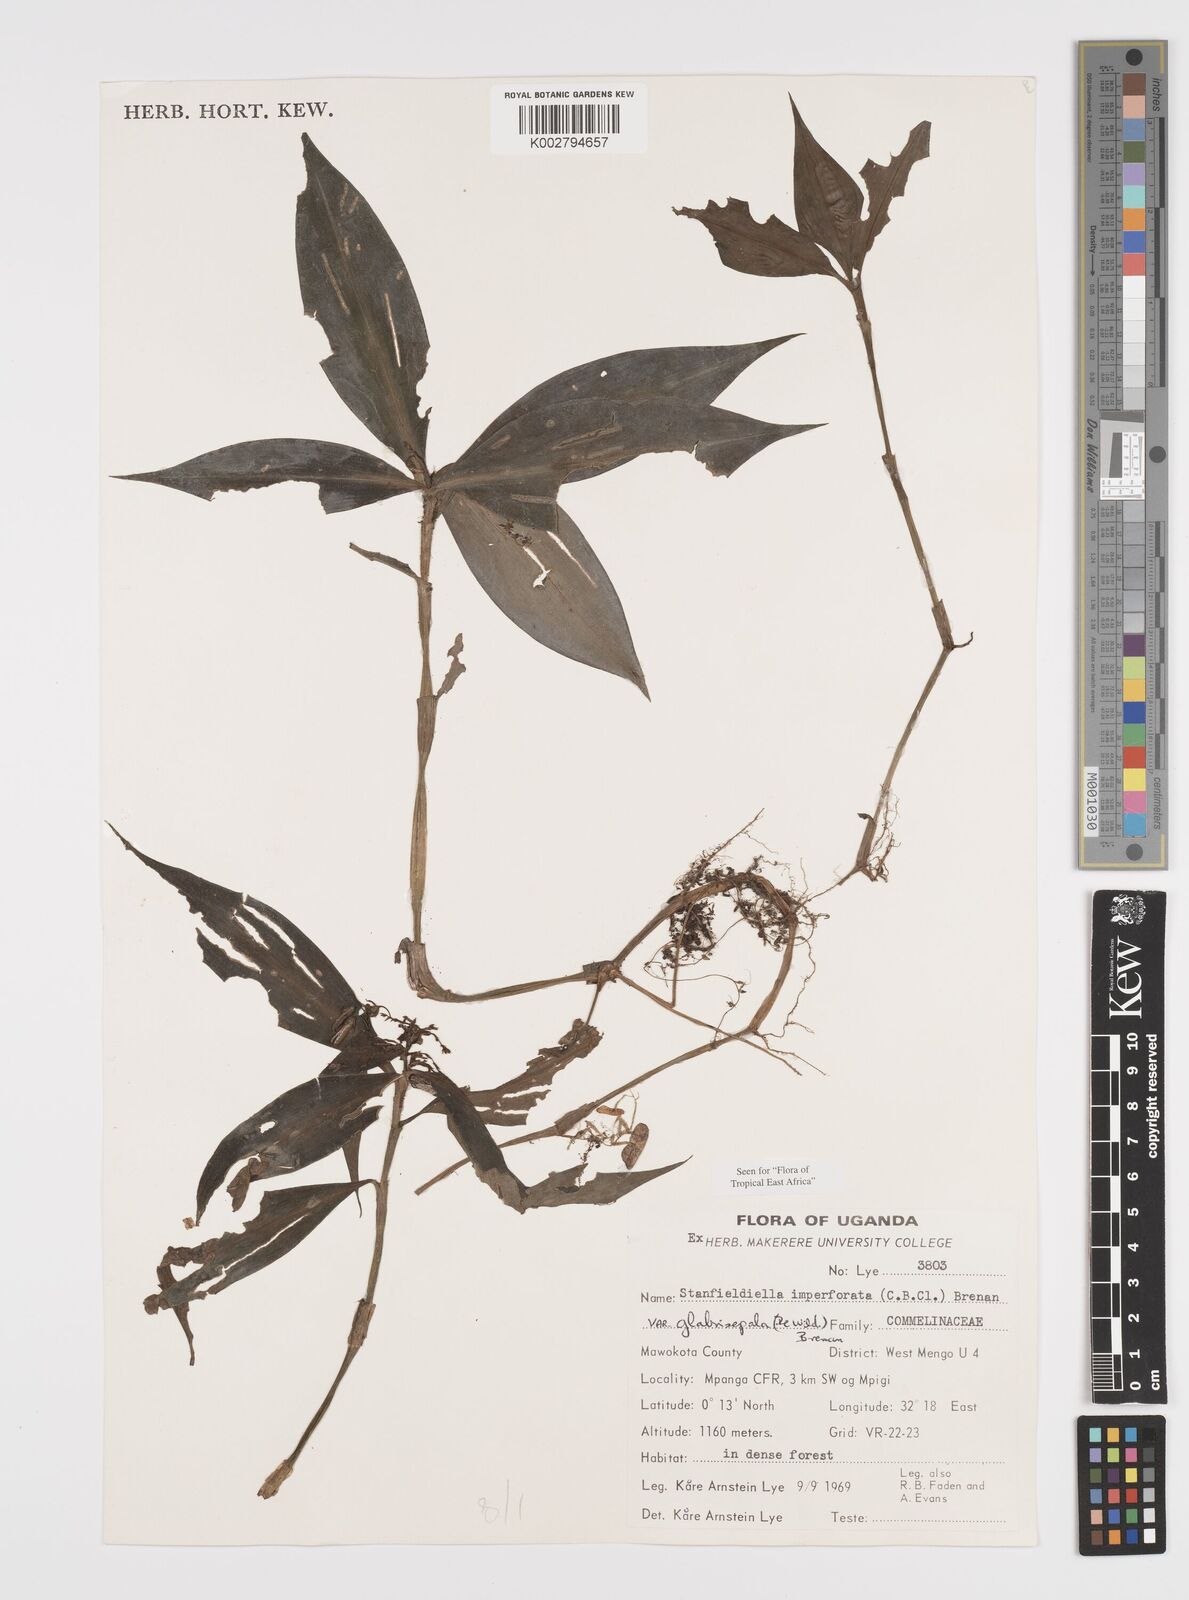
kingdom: Plantae
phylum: Tracheophyta
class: Liliopsida
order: Commelinales
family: Commelinaceae
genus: Stanfieldiella
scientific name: Stanfieldiella imperforata
